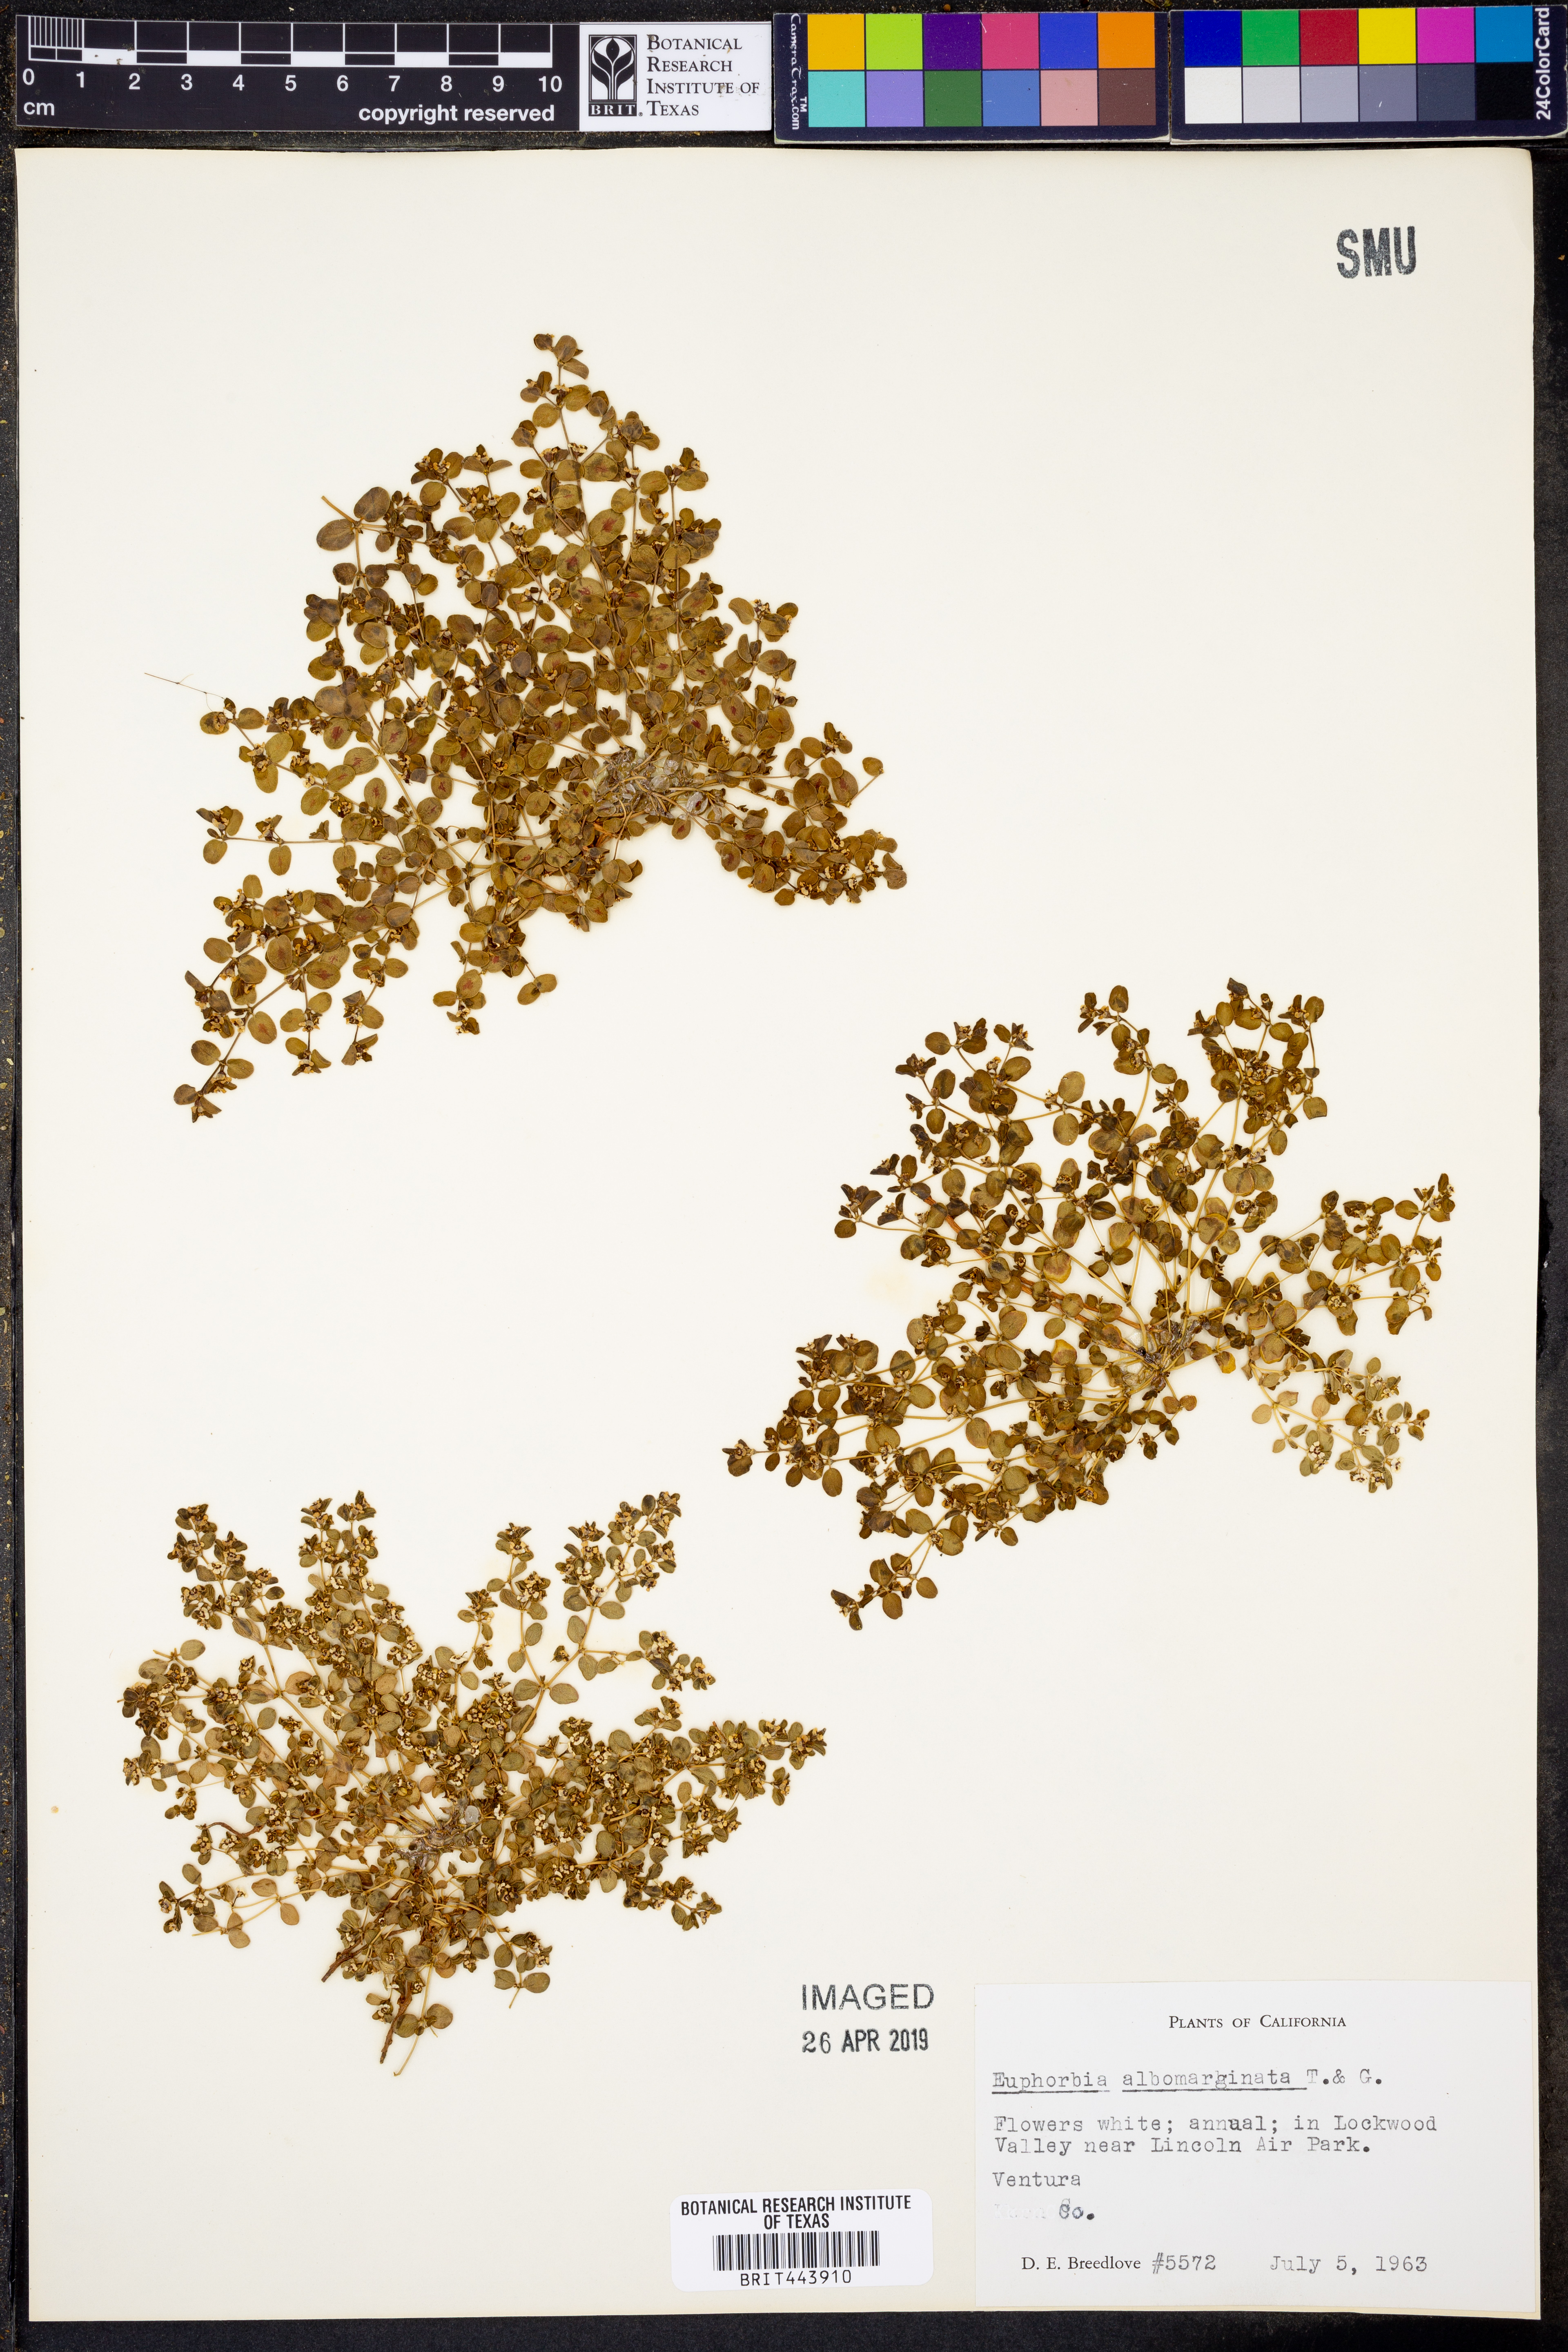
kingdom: Plantae
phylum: Tracheophyta
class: Magnoliopsida
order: Malpighiales
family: Euphorbiaceae
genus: Euphorbia
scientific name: Euphorbia albomarginata
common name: Whitemargin sandmat
